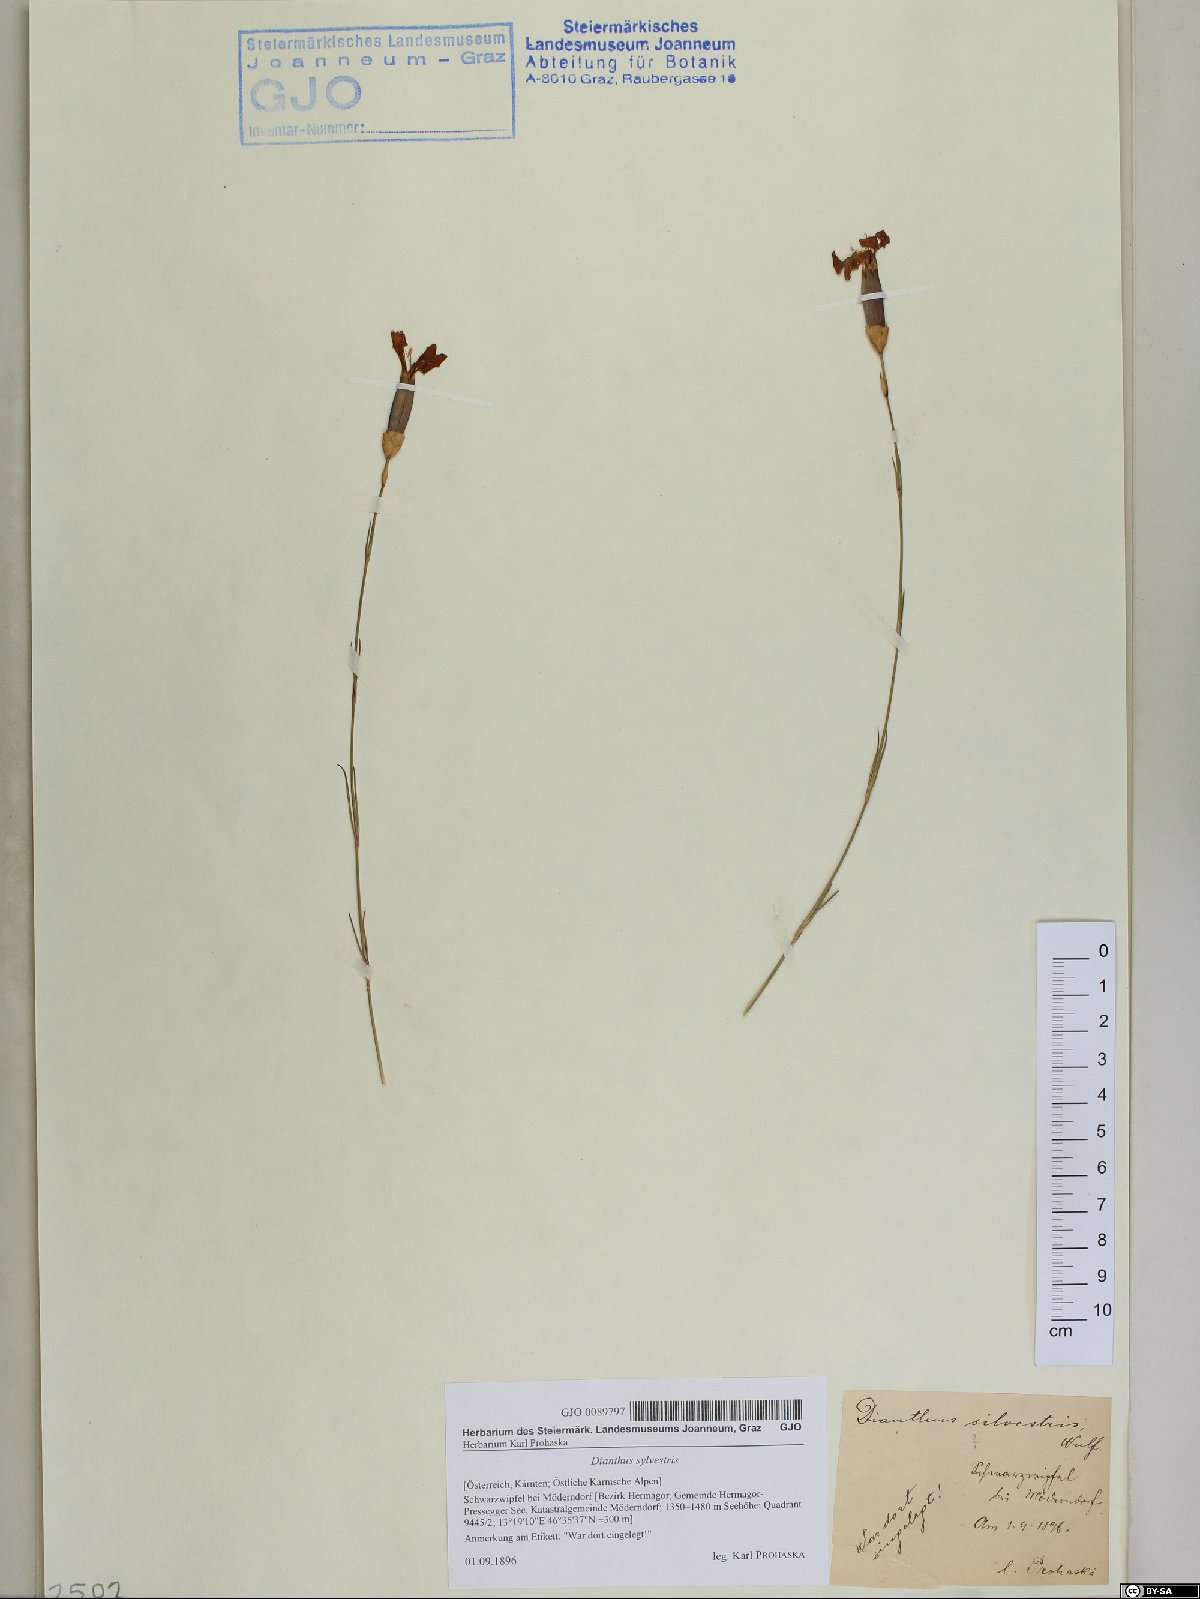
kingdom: Plantae
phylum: Tracheophyta
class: Magnoliopsida
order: Caryophyllales
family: Caryophyllaceae
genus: Dianthus
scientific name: Dianthus sylvestris
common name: Wood pink
